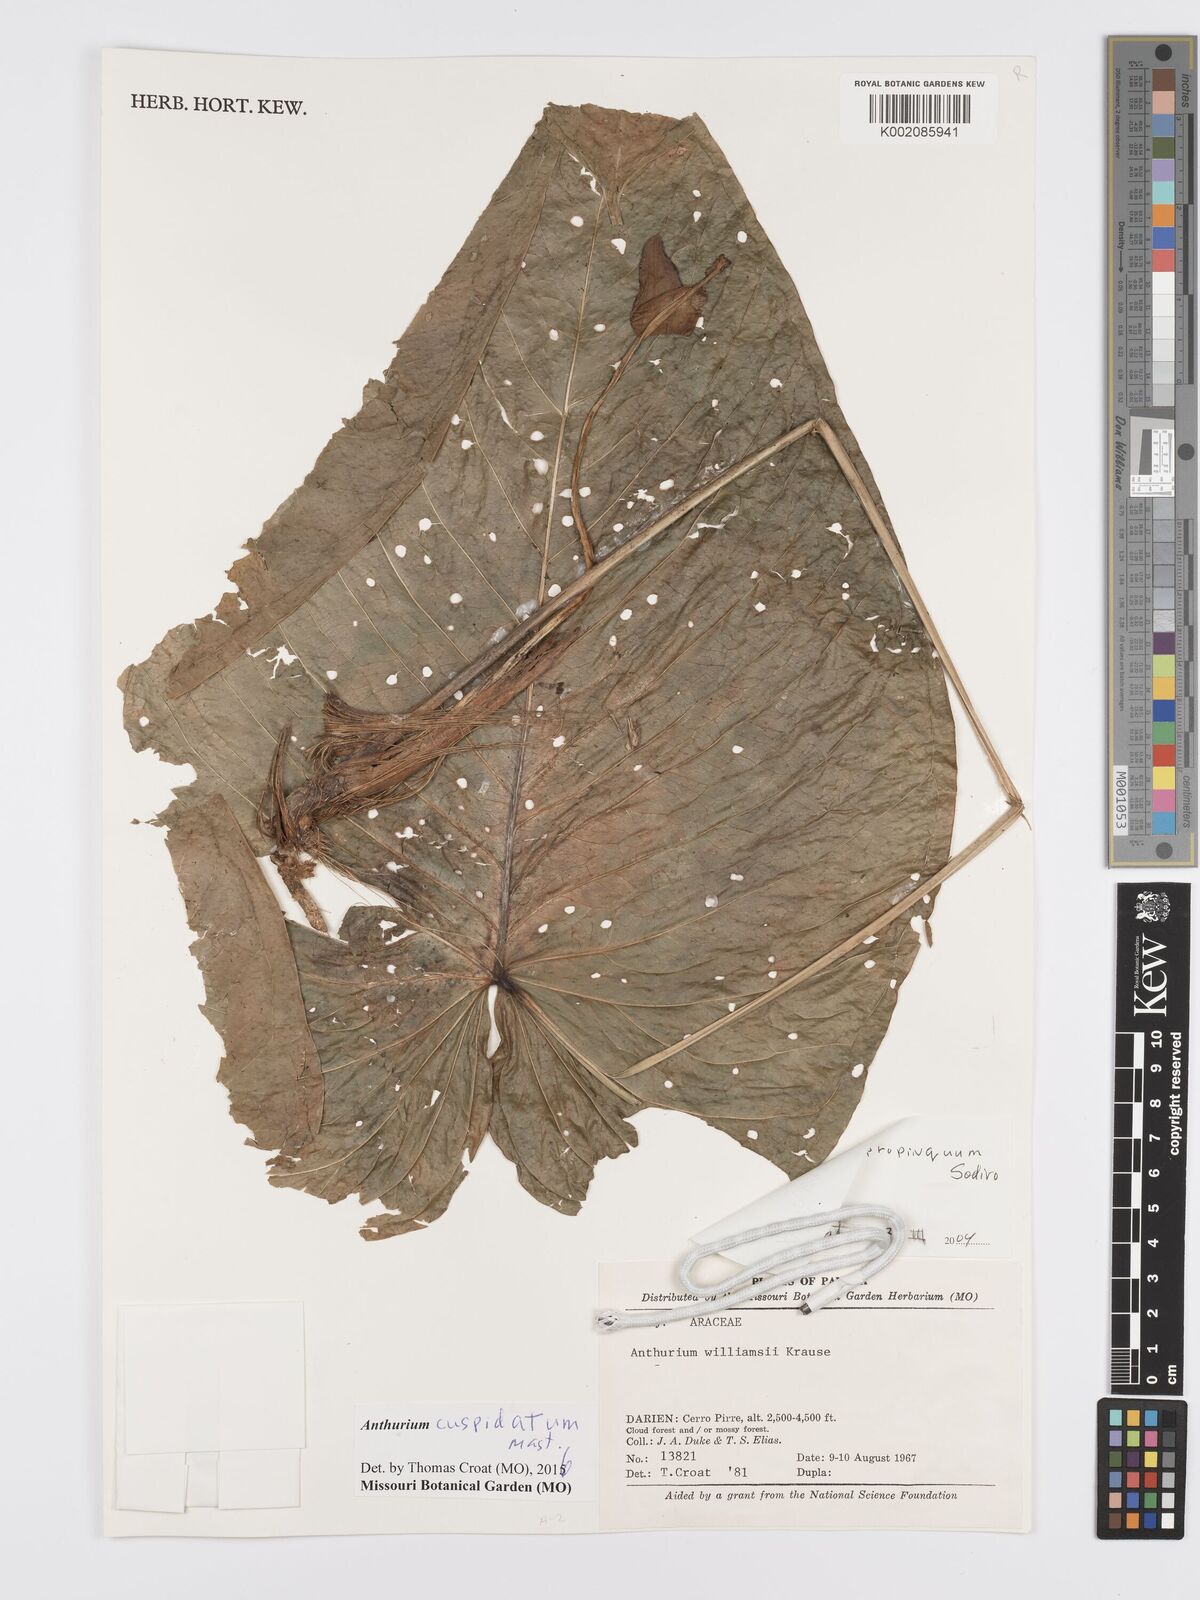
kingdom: Plantae
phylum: Tracheophyta
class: Liliopsida
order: Alismatales
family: Araceae
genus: Anthurium
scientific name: Anthurium cuspidatum
